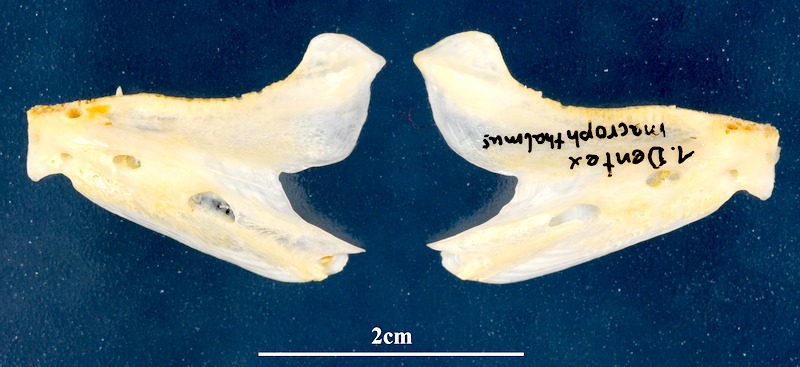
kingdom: Animalia
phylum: Chordata
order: Perciformes
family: Sparidae
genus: Dentex
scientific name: Dentex macrophthalmus
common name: Large-eyed dentex
